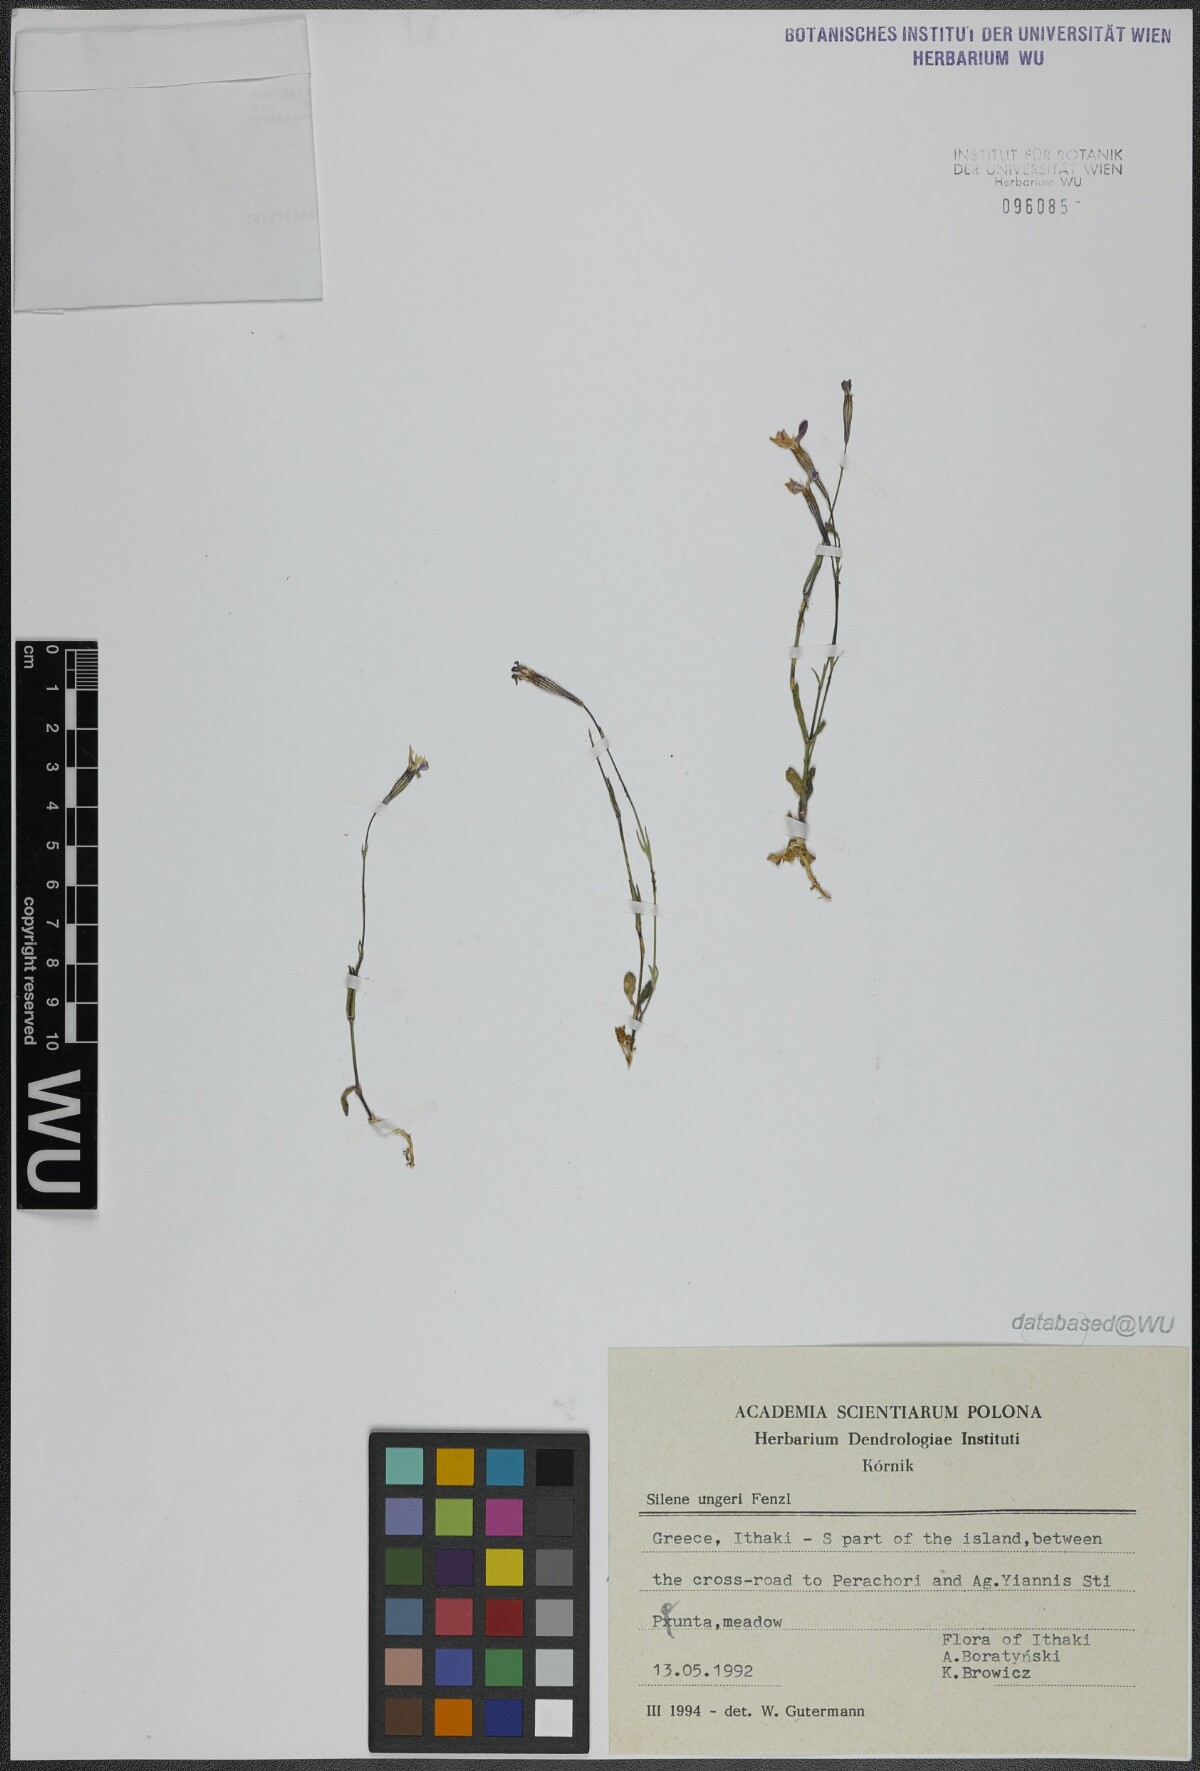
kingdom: Plantae
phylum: Tracheophyta
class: Magnoliopsida
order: Caryophyllales
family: Caryophyllaceae
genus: Silene
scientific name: Silene ungeri
